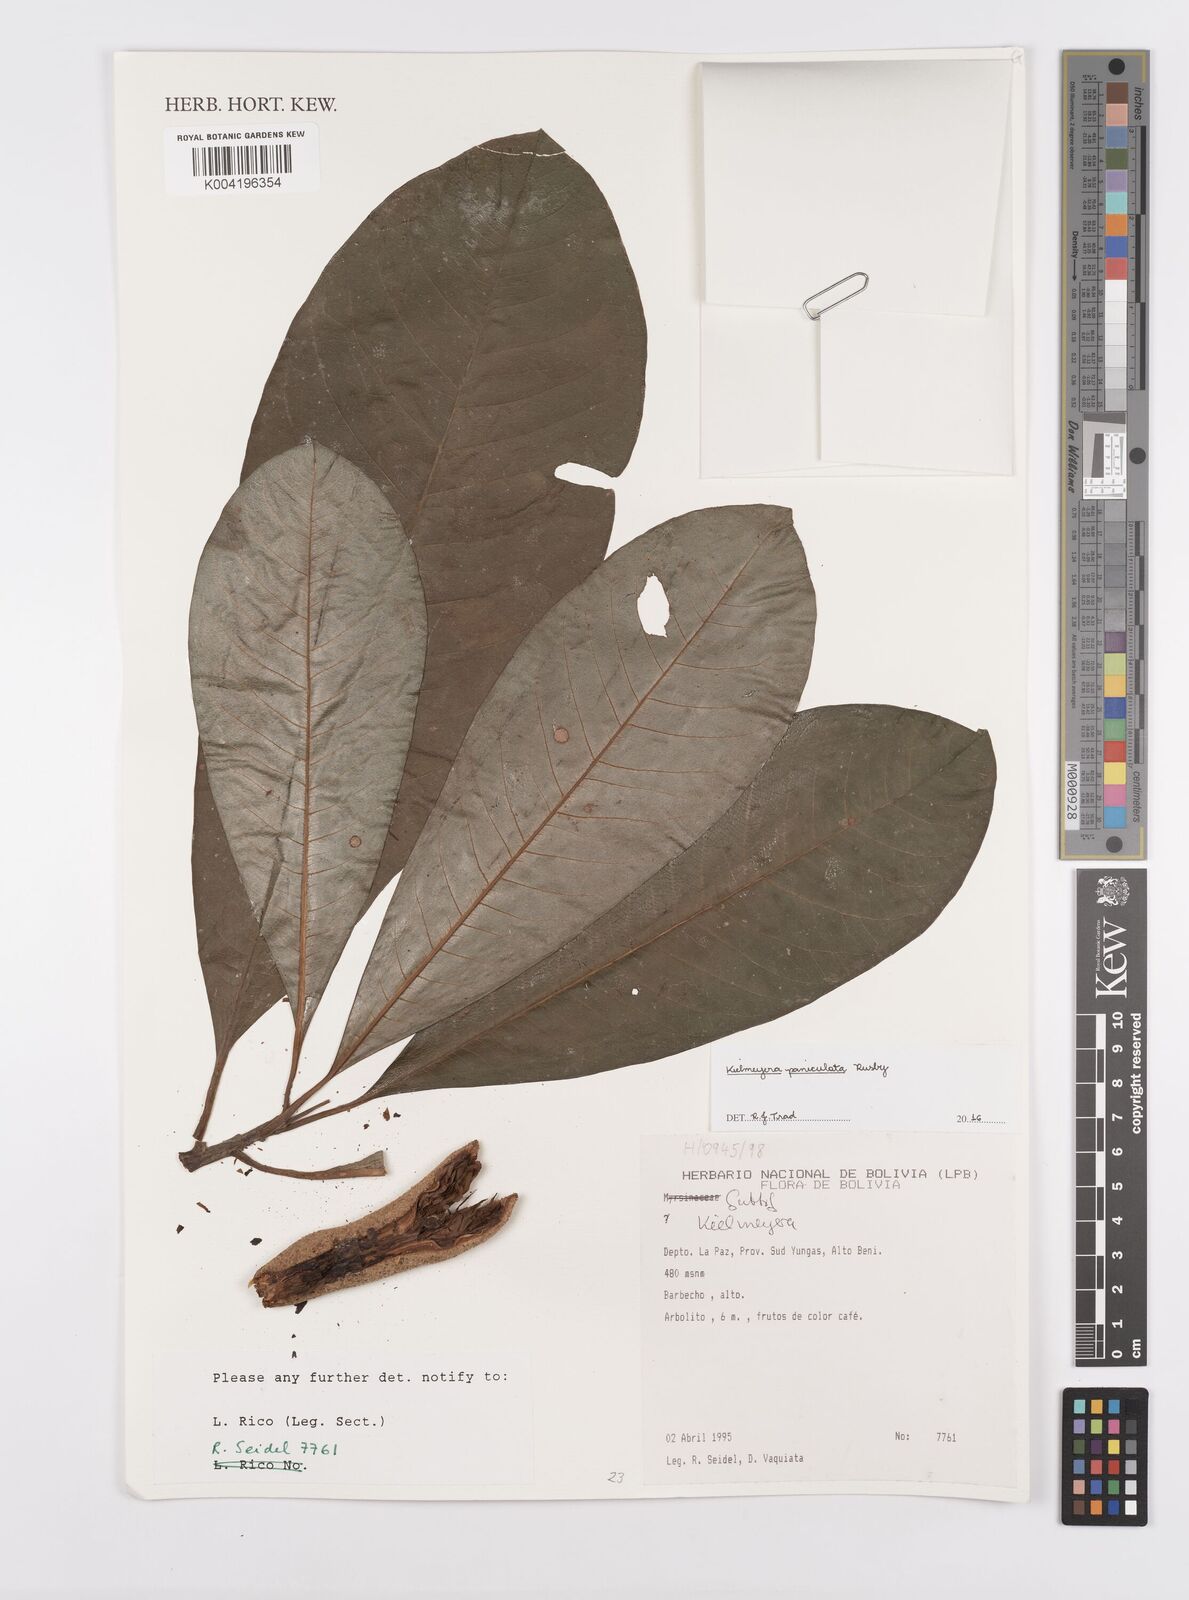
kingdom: Plantae
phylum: Tracheophyta
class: Magnoliopsida
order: Malpighiales
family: Calophyllaceae
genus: Kielmeyera
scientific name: Kielmeyera paniculata
